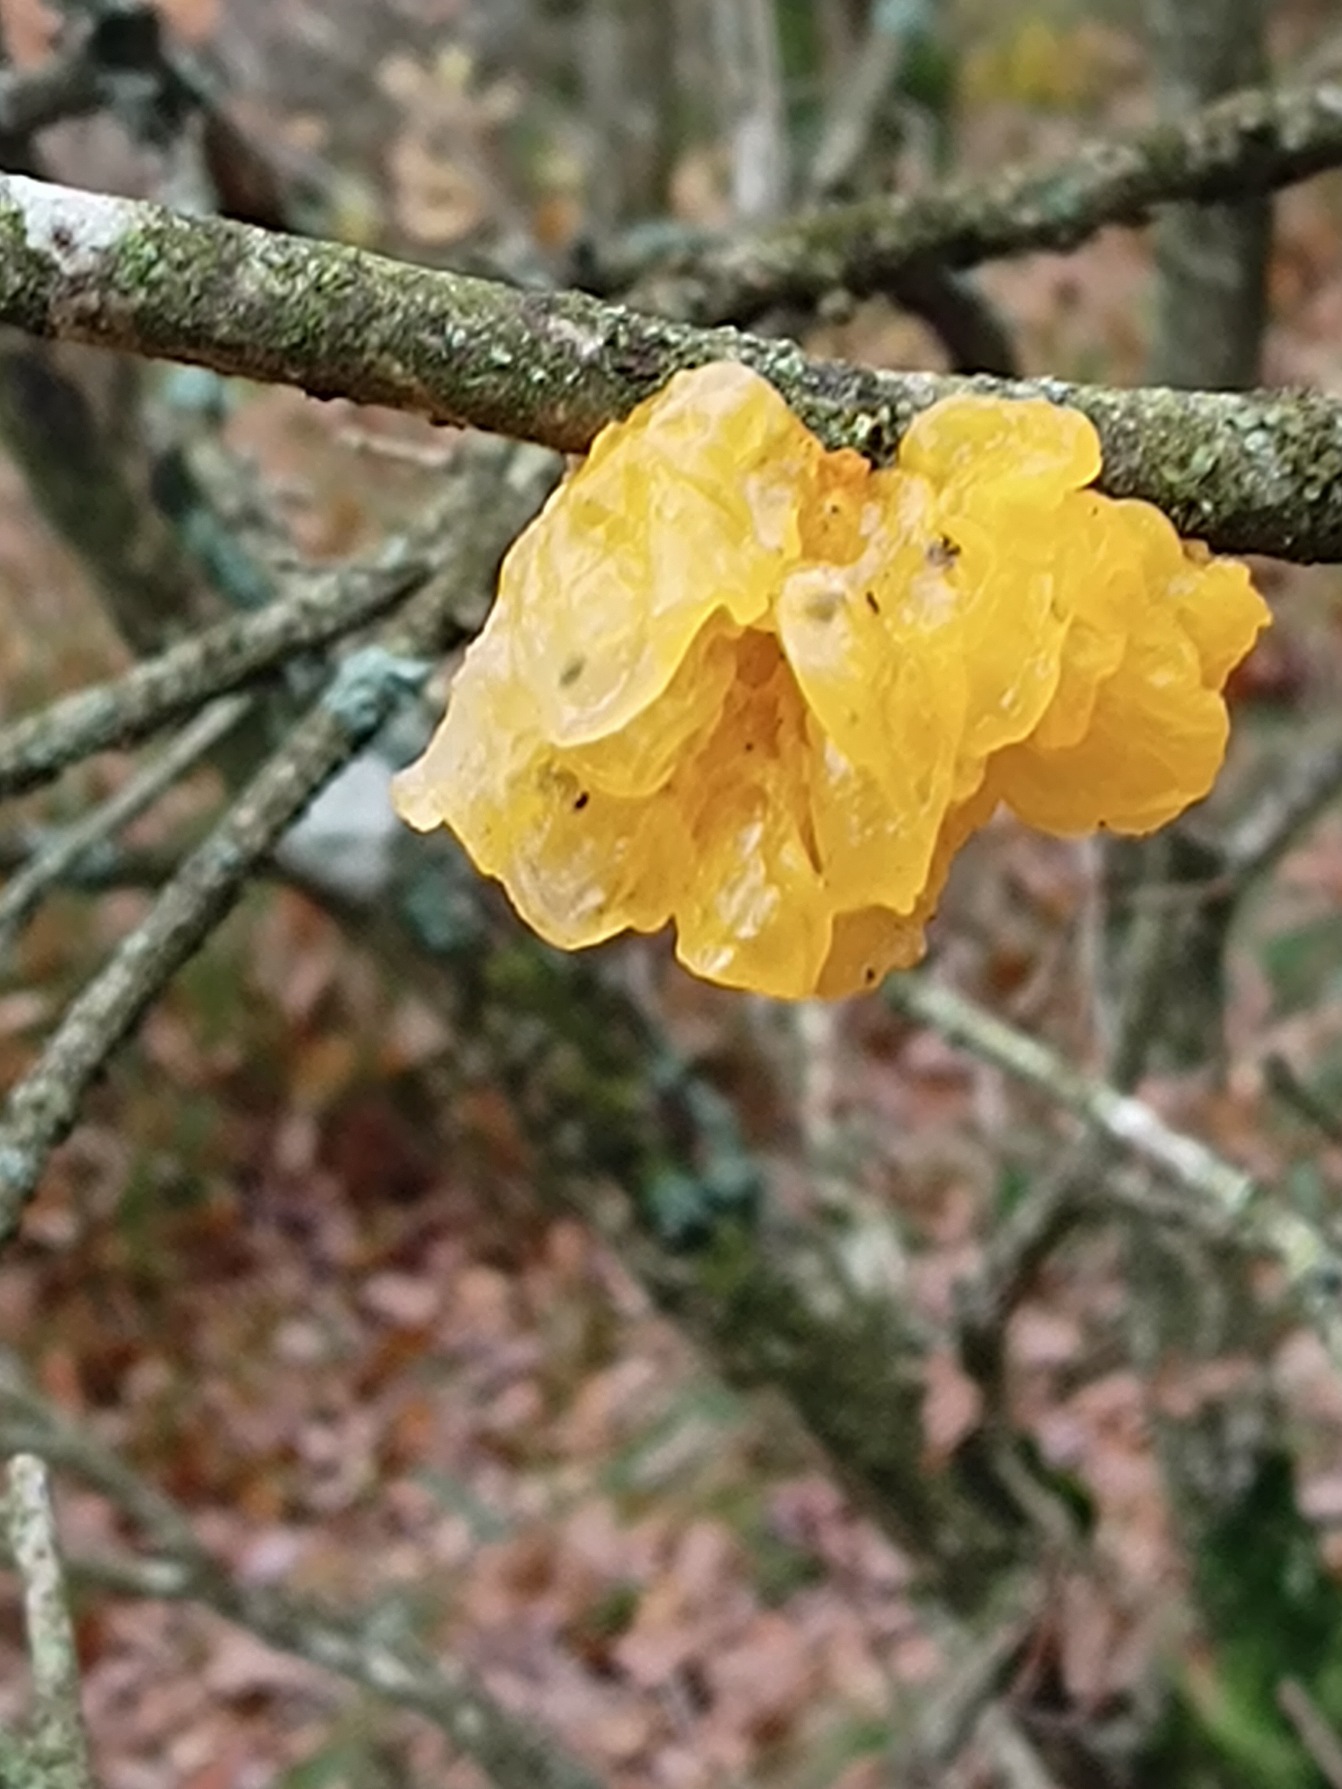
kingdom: Fungi
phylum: Basidiomycota
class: Tremellomycetes
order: Tremellales
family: Tremellaceae
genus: Tremella
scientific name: Tremella mesenterica
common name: Gul bævresvamp
